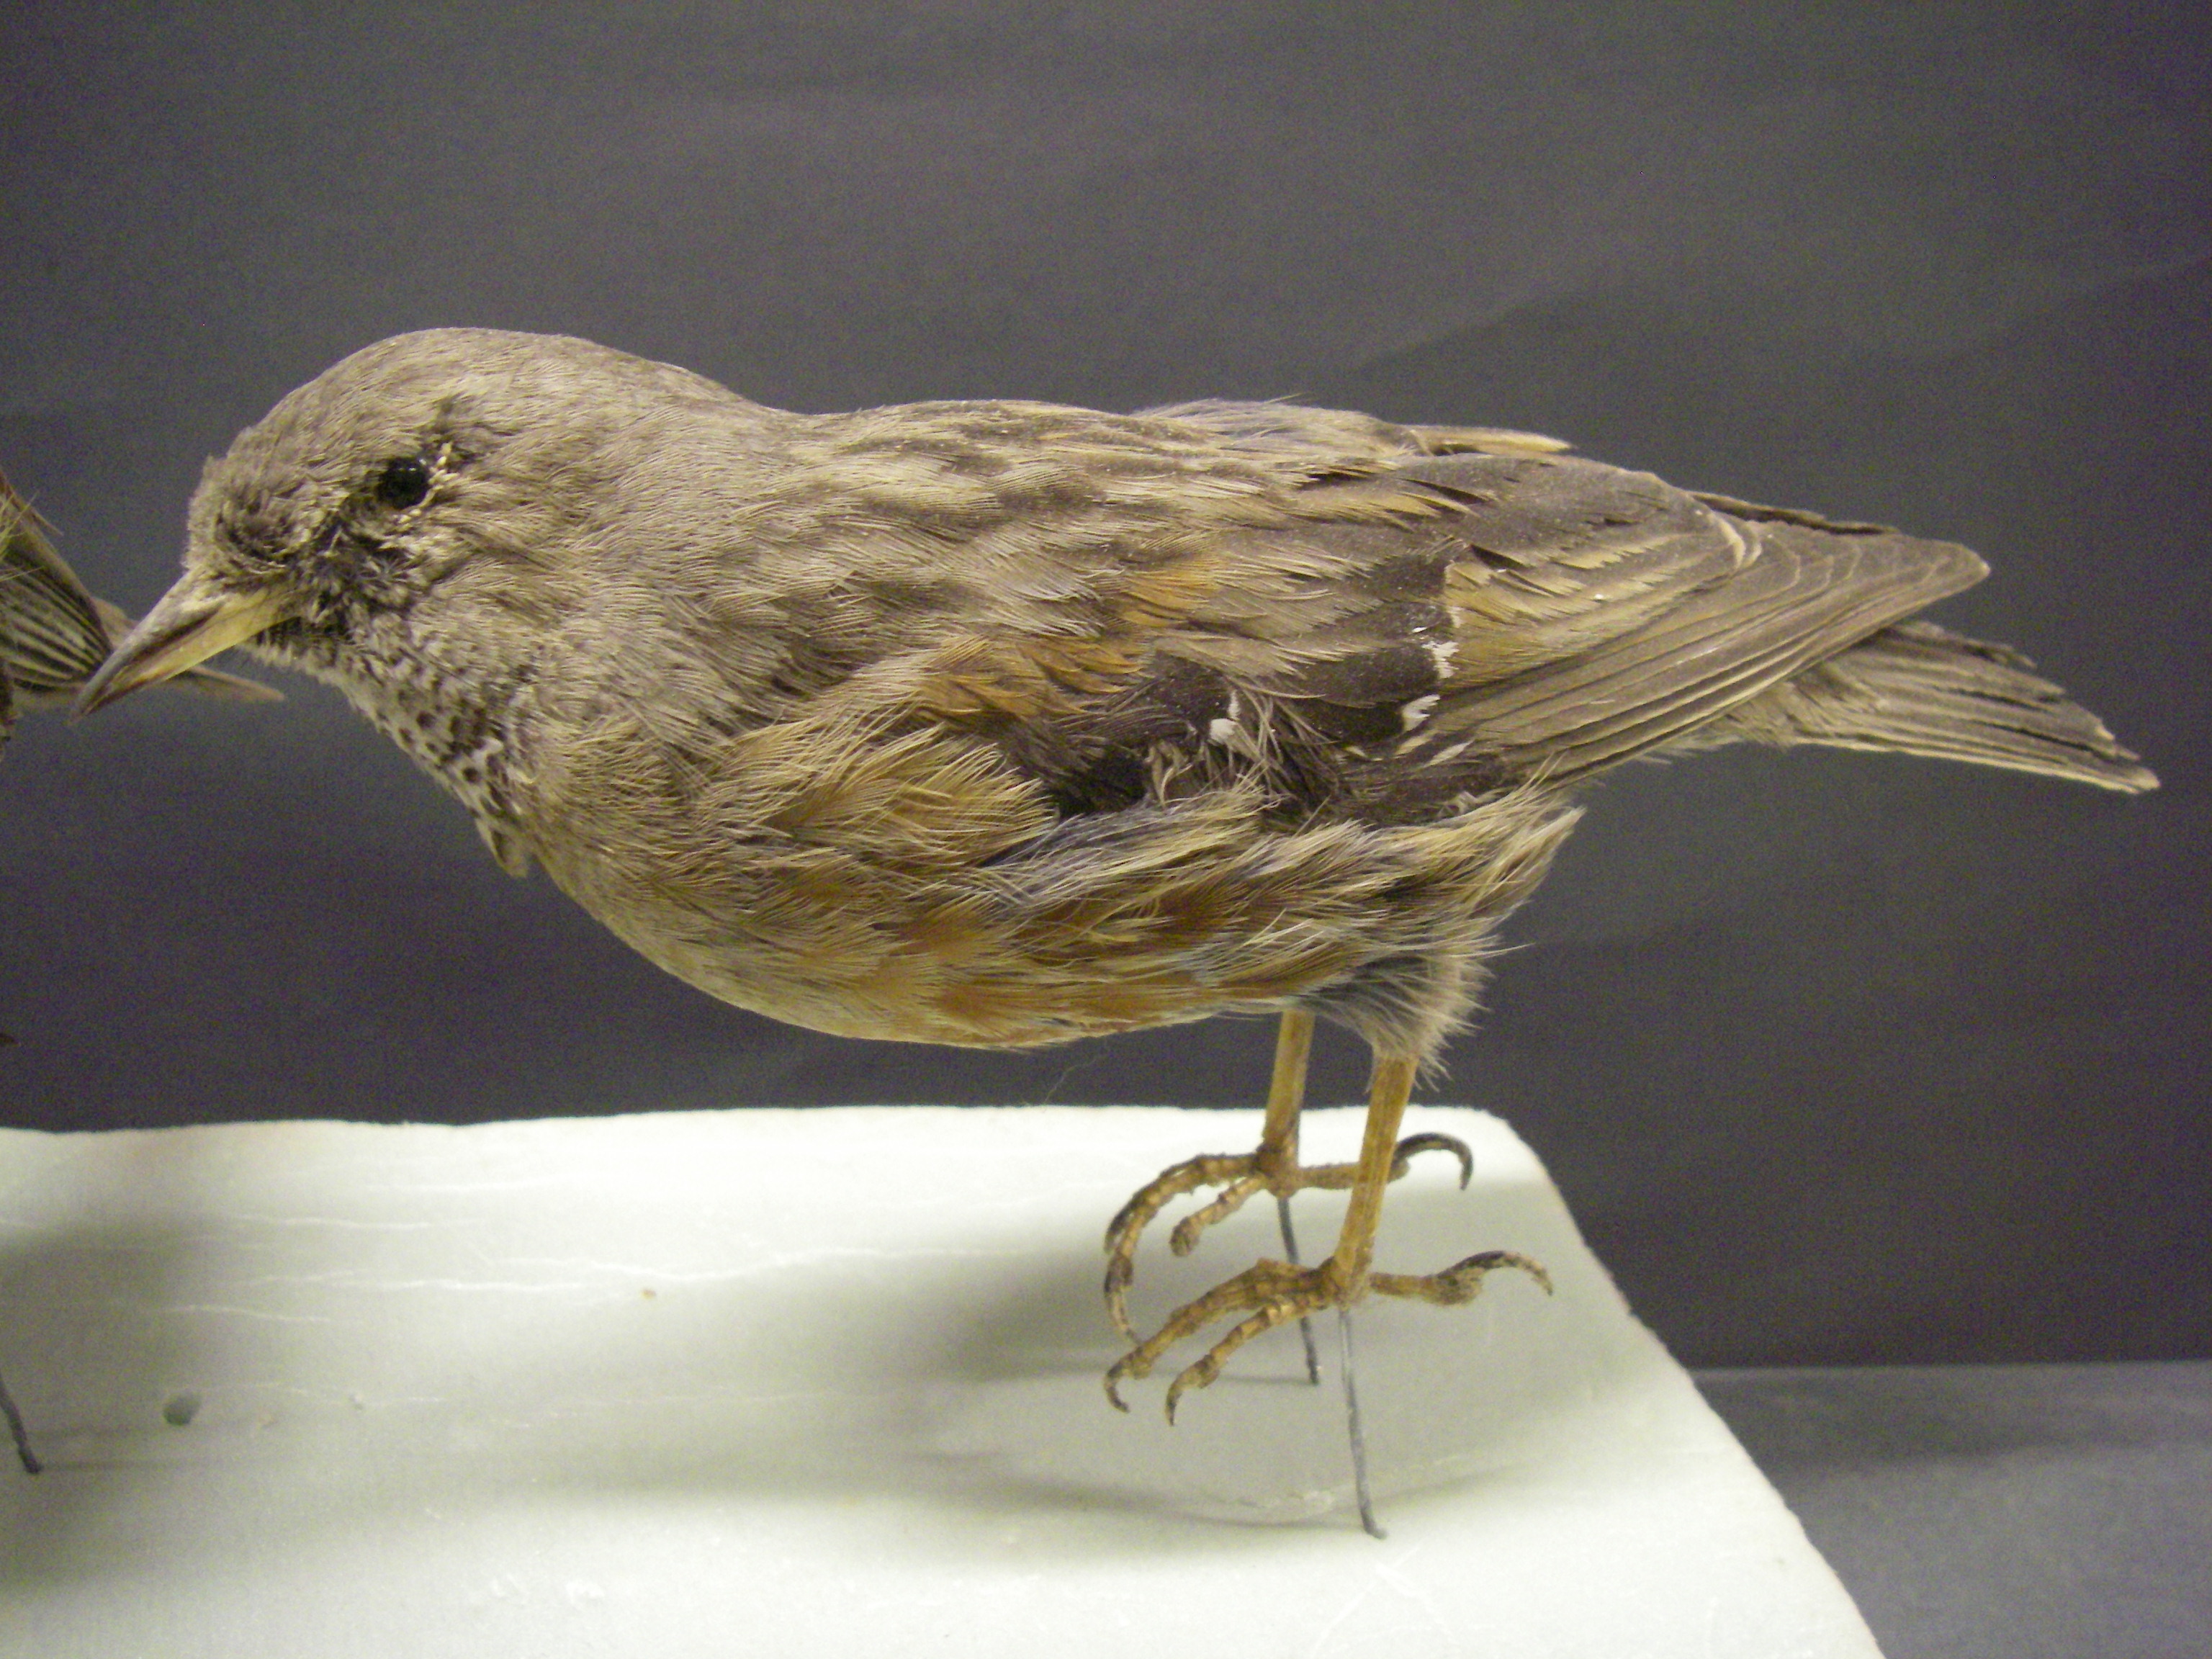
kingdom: Animalia
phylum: Chordata
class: Aves
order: Passeriformes
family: Prunellidae
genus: Prunella
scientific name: Prunella collaris
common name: Alpine accentor
